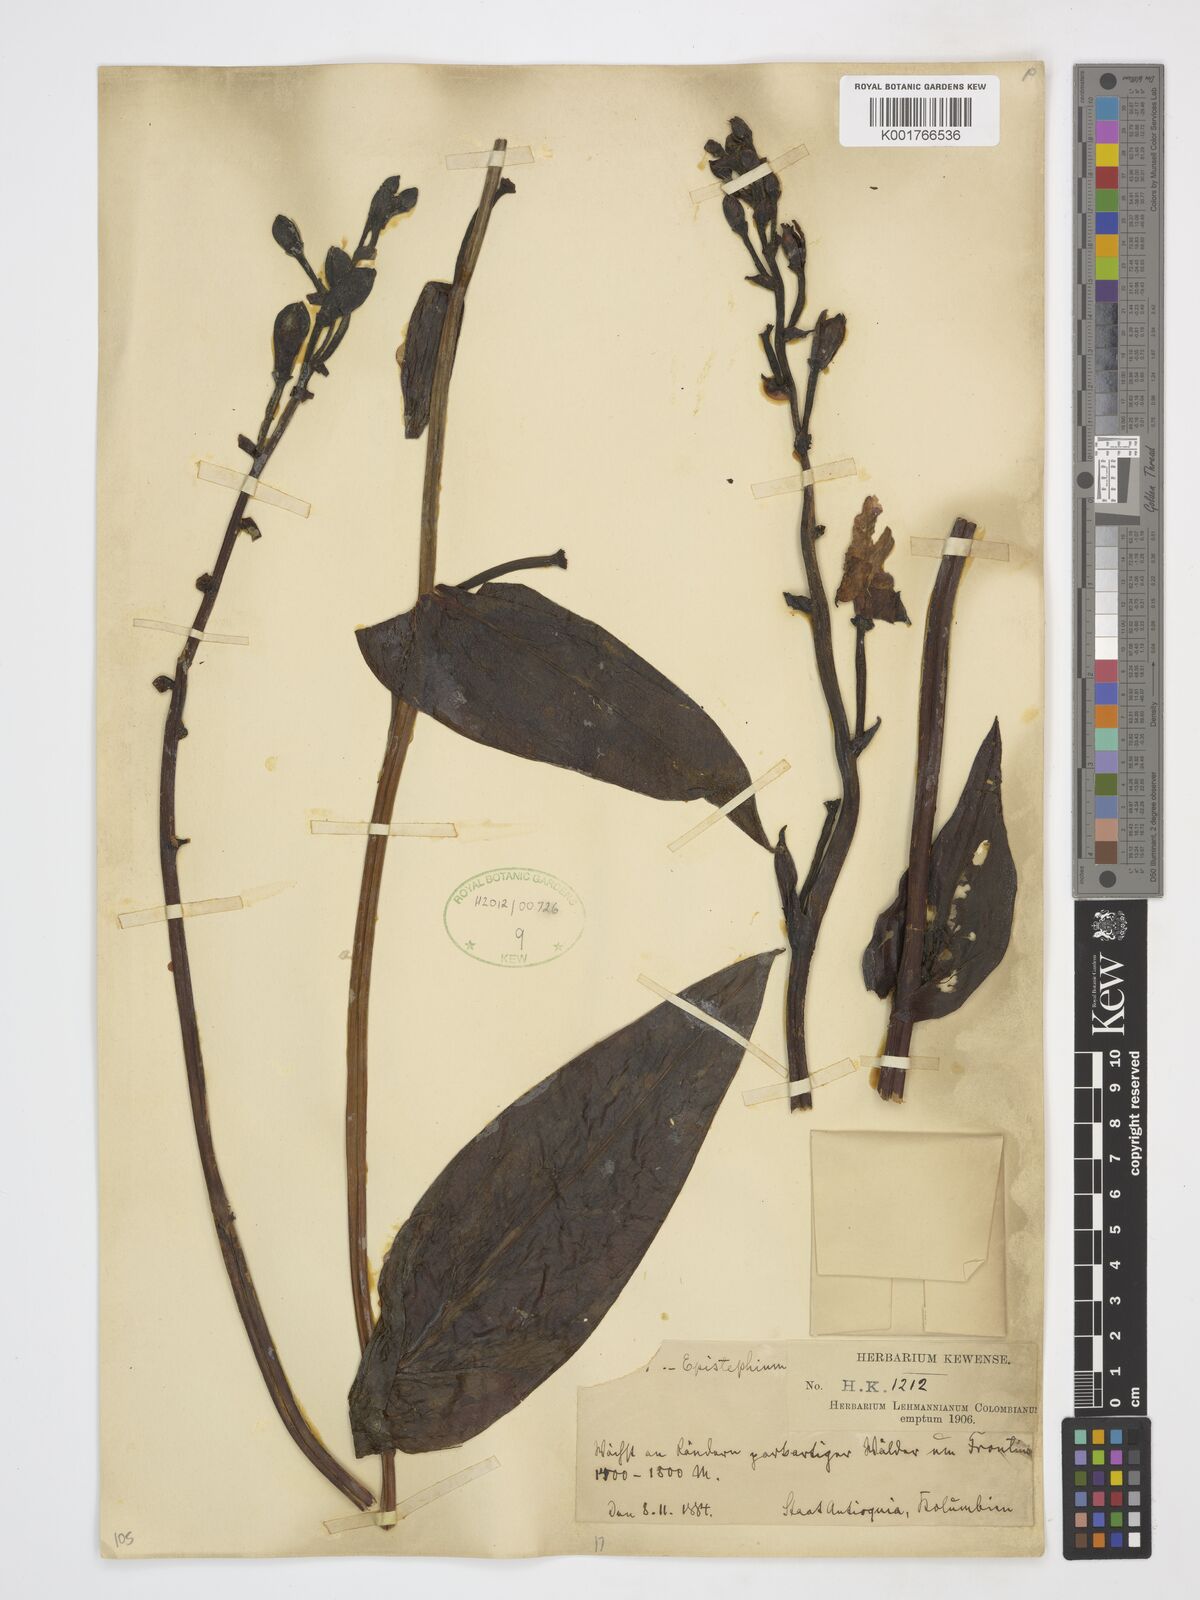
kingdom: Plantae
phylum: Tracheophyta
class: Liliopsida
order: Asparagales
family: Orchidaceae
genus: Epistephium
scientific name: Epistephium
